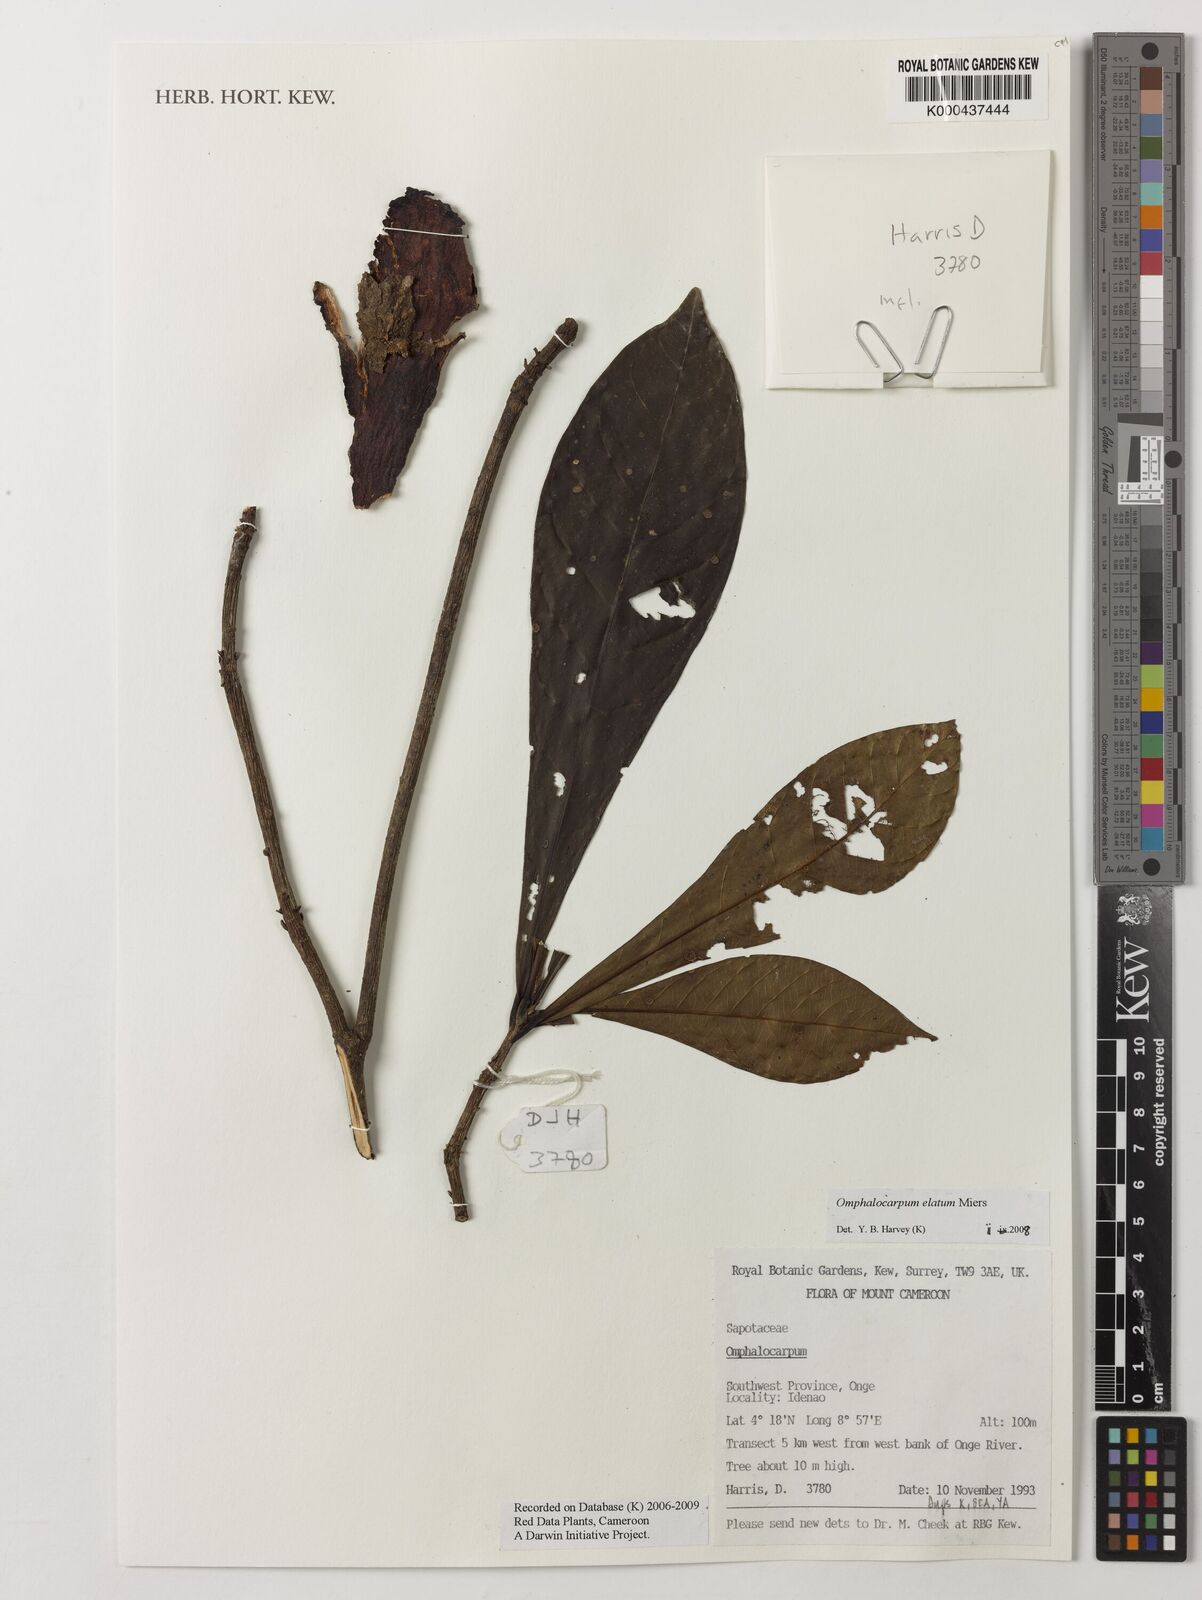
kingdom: Plantae
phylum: Tracheophyta
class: Magnoliopsida
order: Ericales
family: Sapotaceae
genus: Omphalocarpum
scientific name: Omphalocarpum elatum
